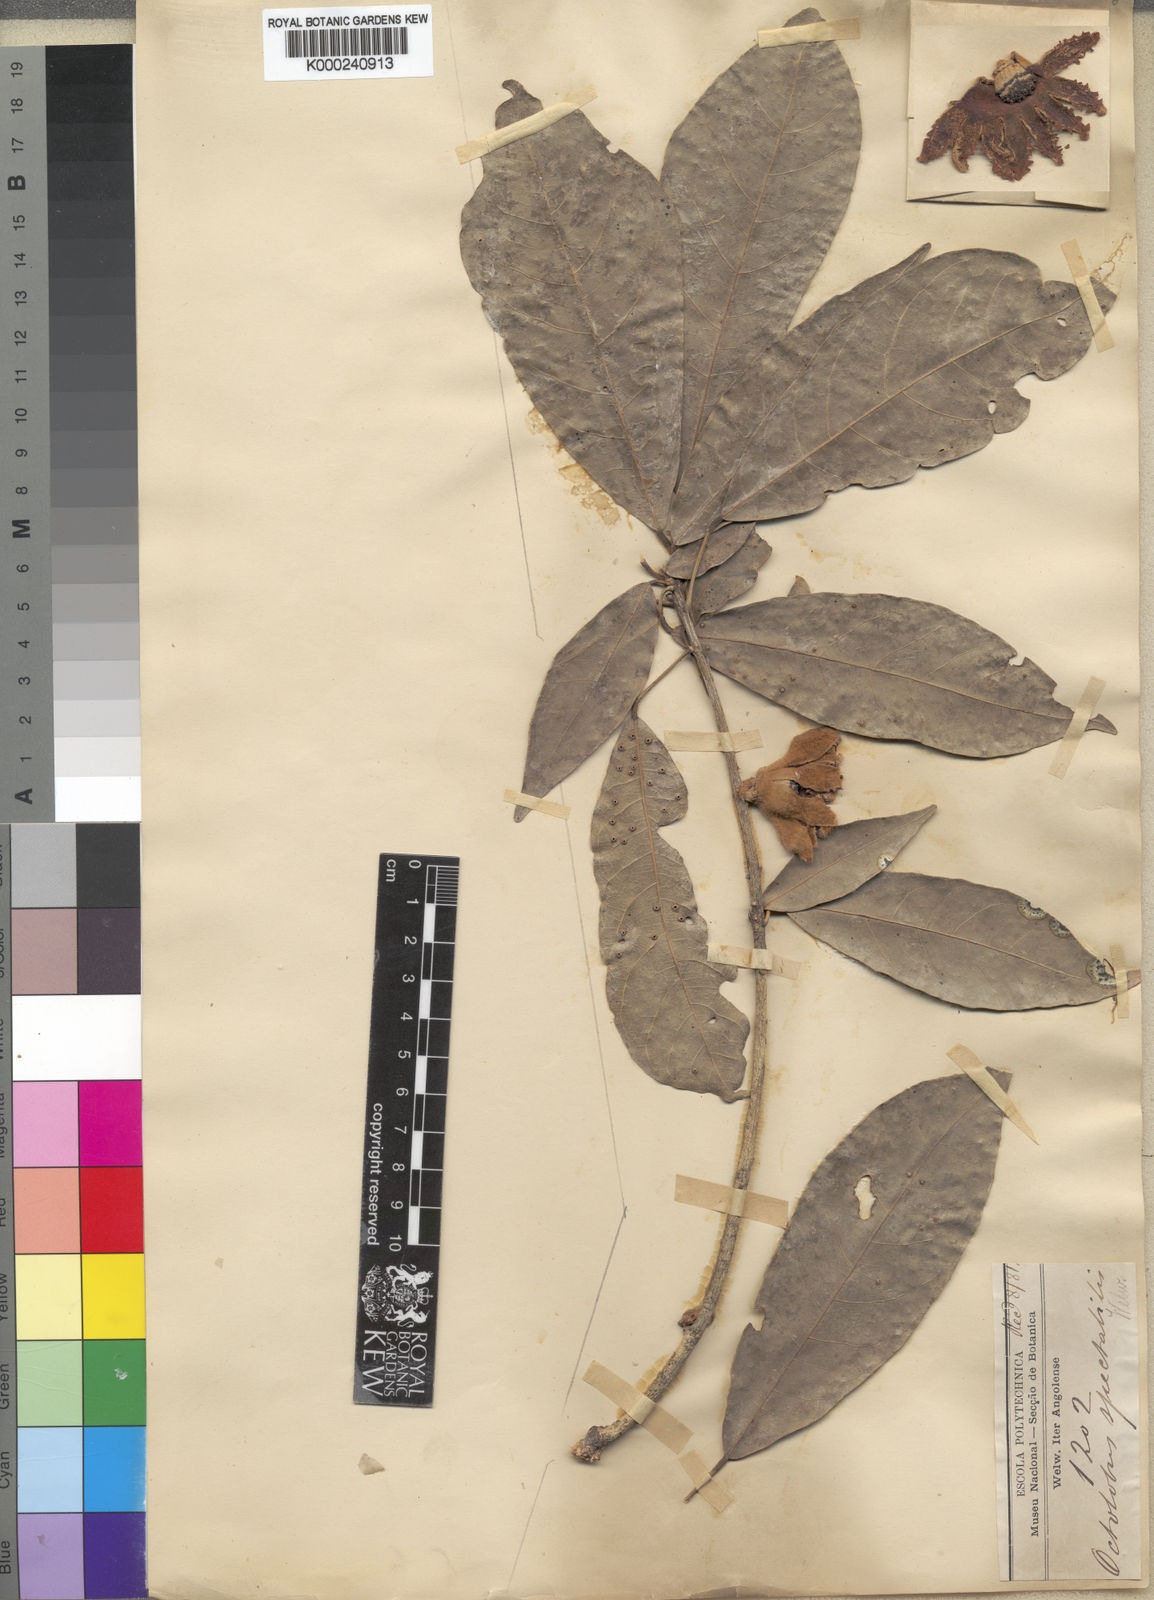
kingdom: Plantae
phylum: Tracheophyta
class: Magnoliopsida
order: Malvales
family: Malvaceae
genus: Octolobus
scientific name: Octolobus spectabilis
